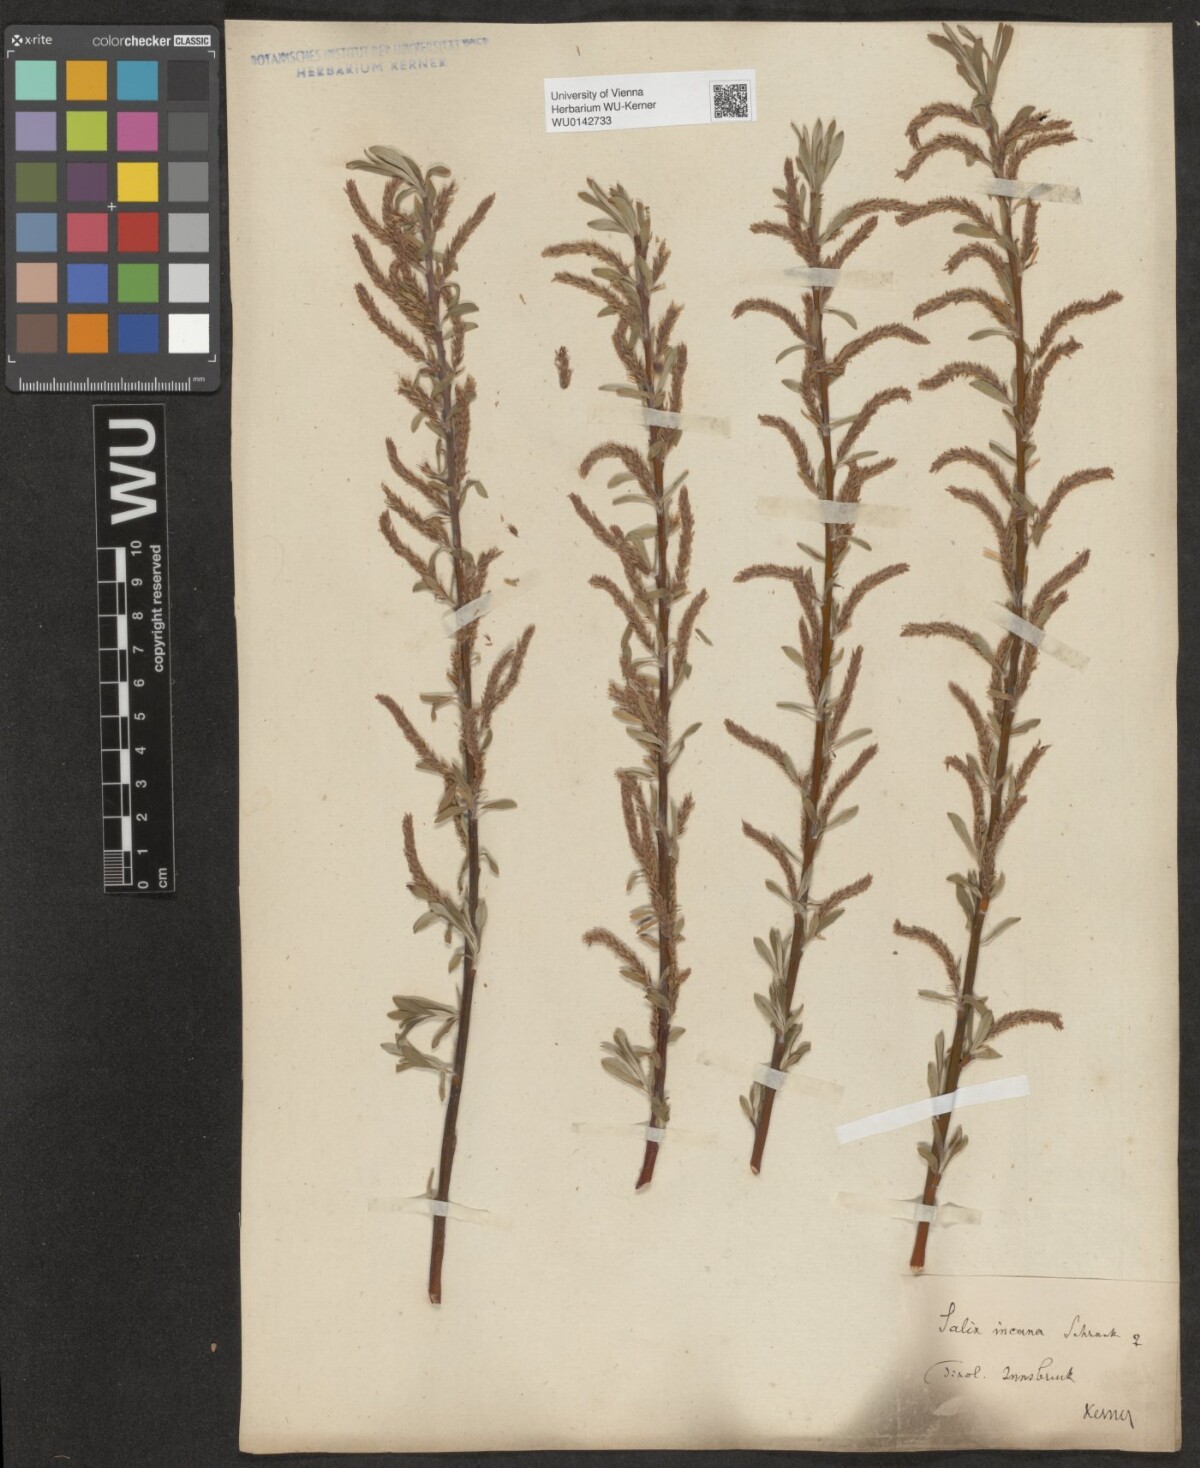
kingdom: Plantae
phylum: Tracheophyta
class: Magnoliopsida
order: Malpighiales
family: Salicaceae
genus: Salix
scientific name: Salix eleagnos
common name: Elaeagnus willow
